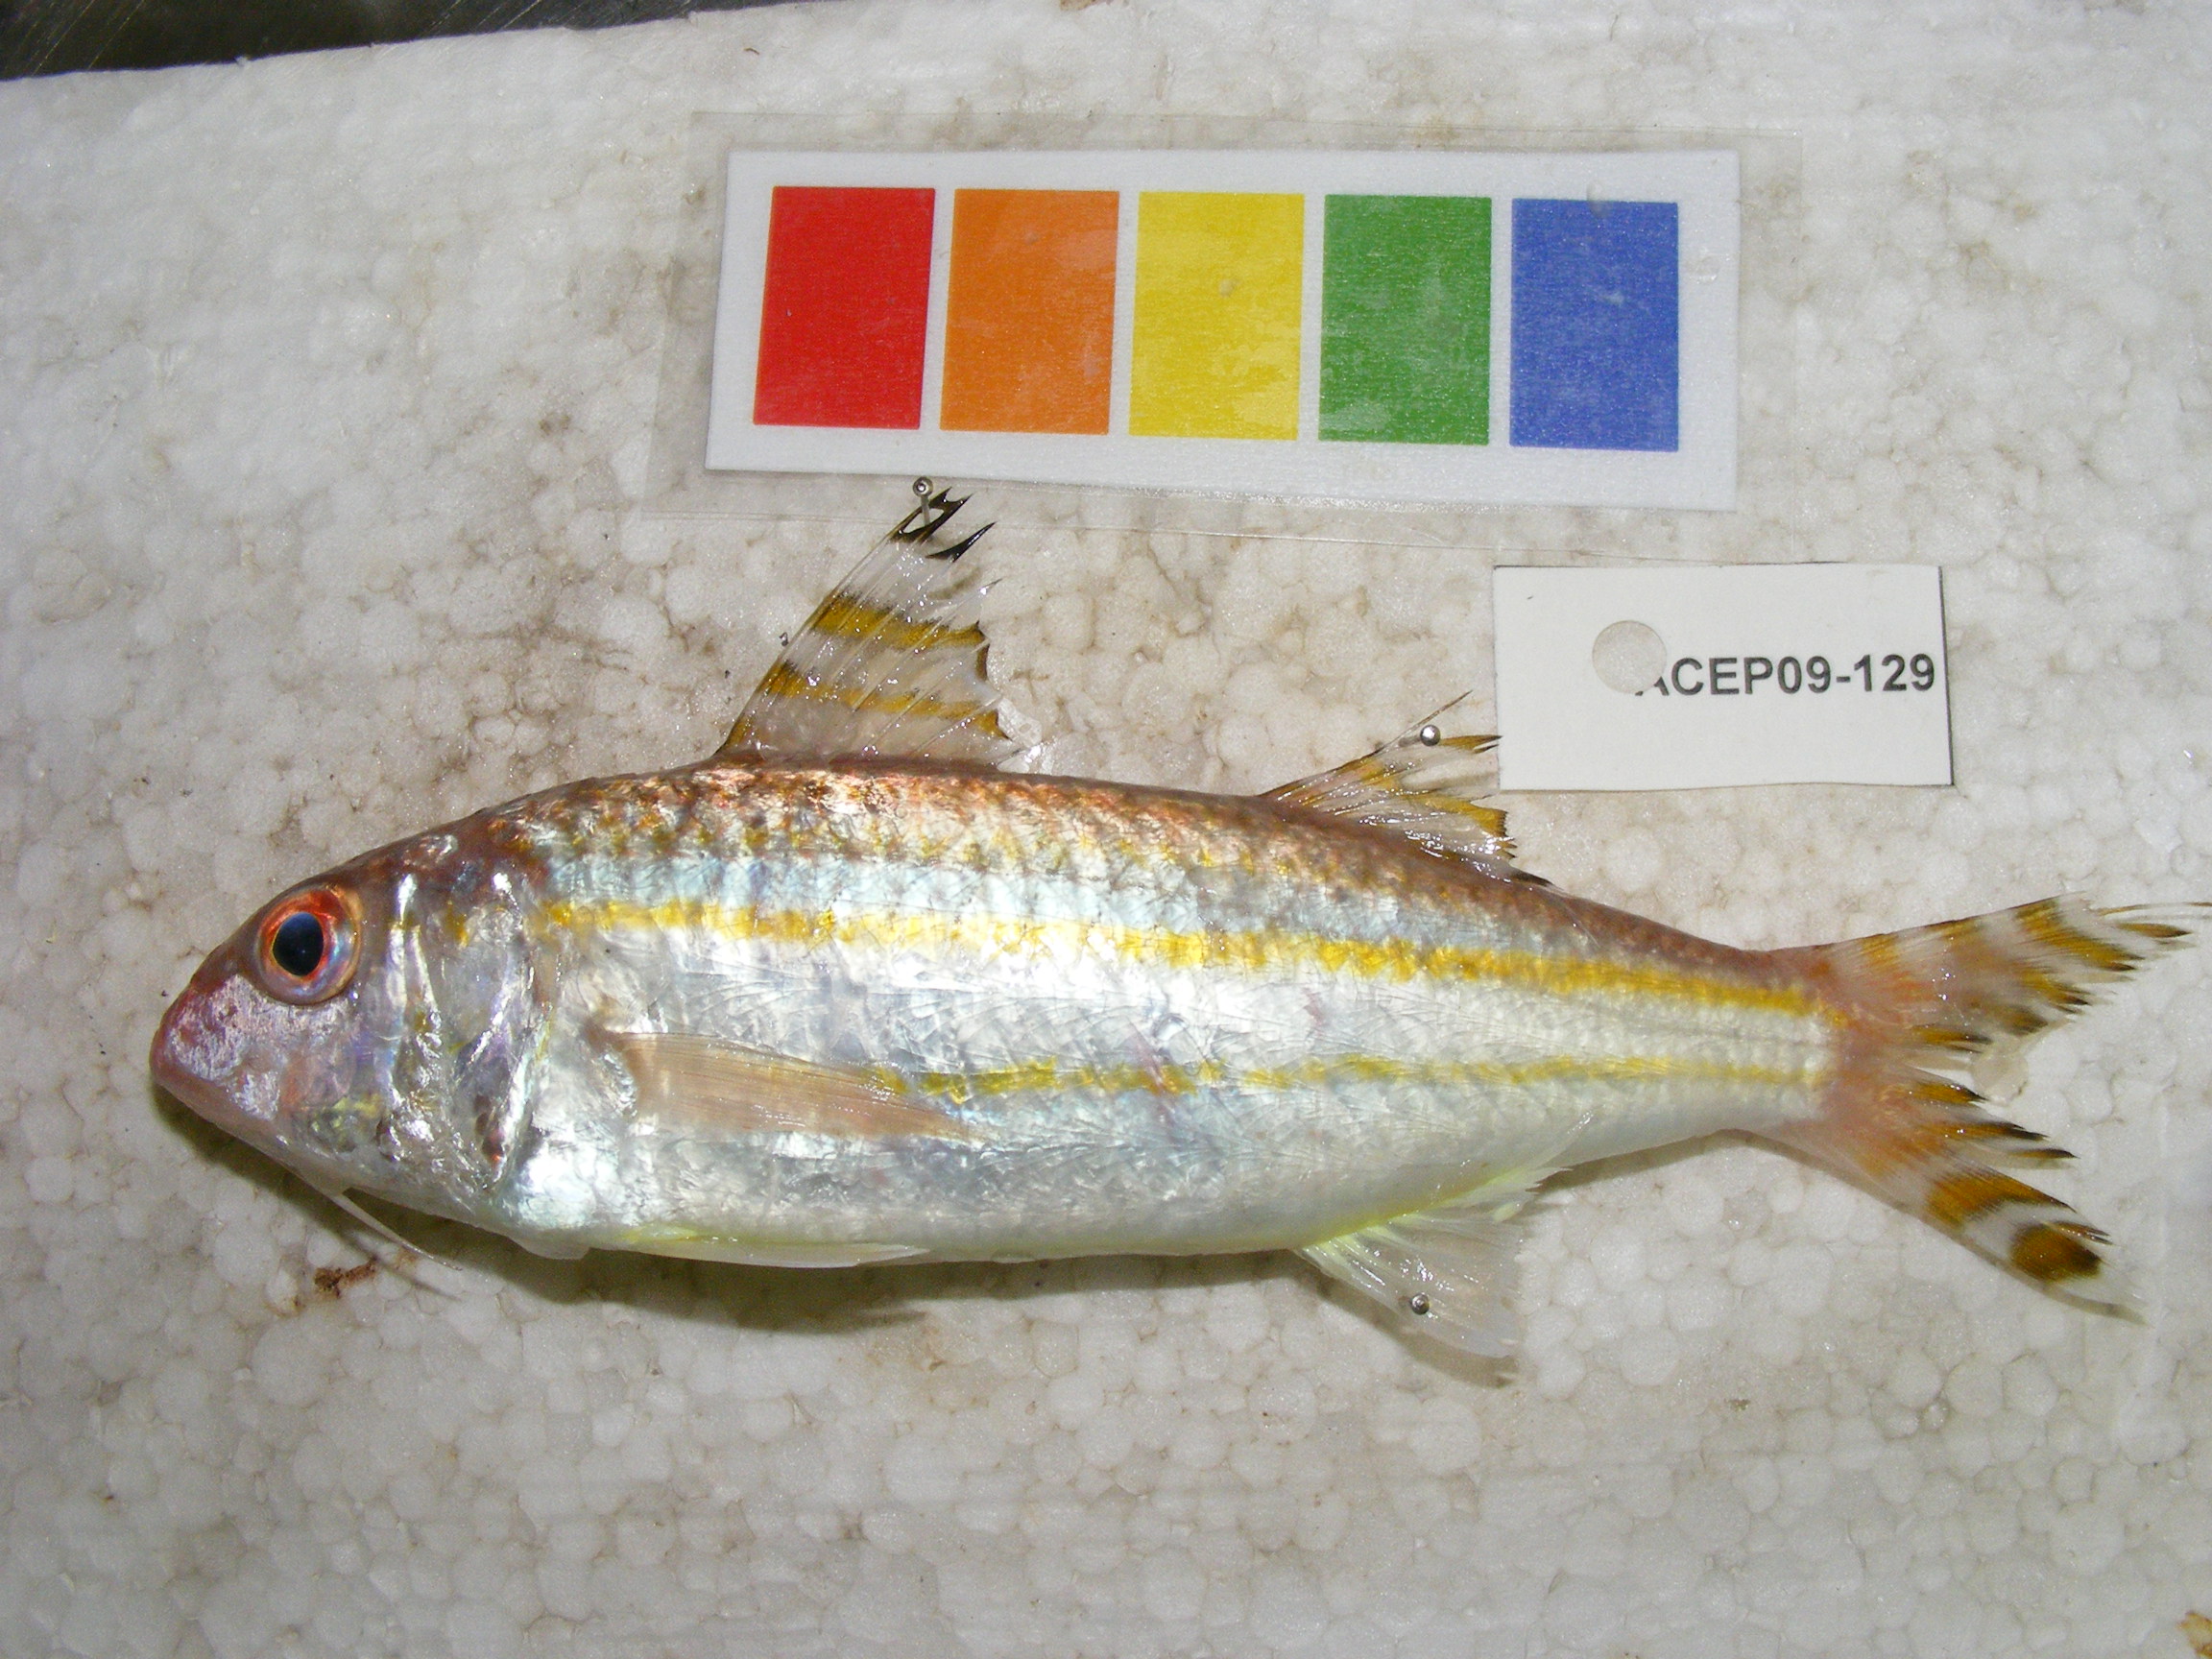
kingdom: Animalia
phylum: Chordata
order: Perciformes
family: Mullidae
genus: Upeneus
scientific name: Upeneus vittatus
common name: Striped goatfish
